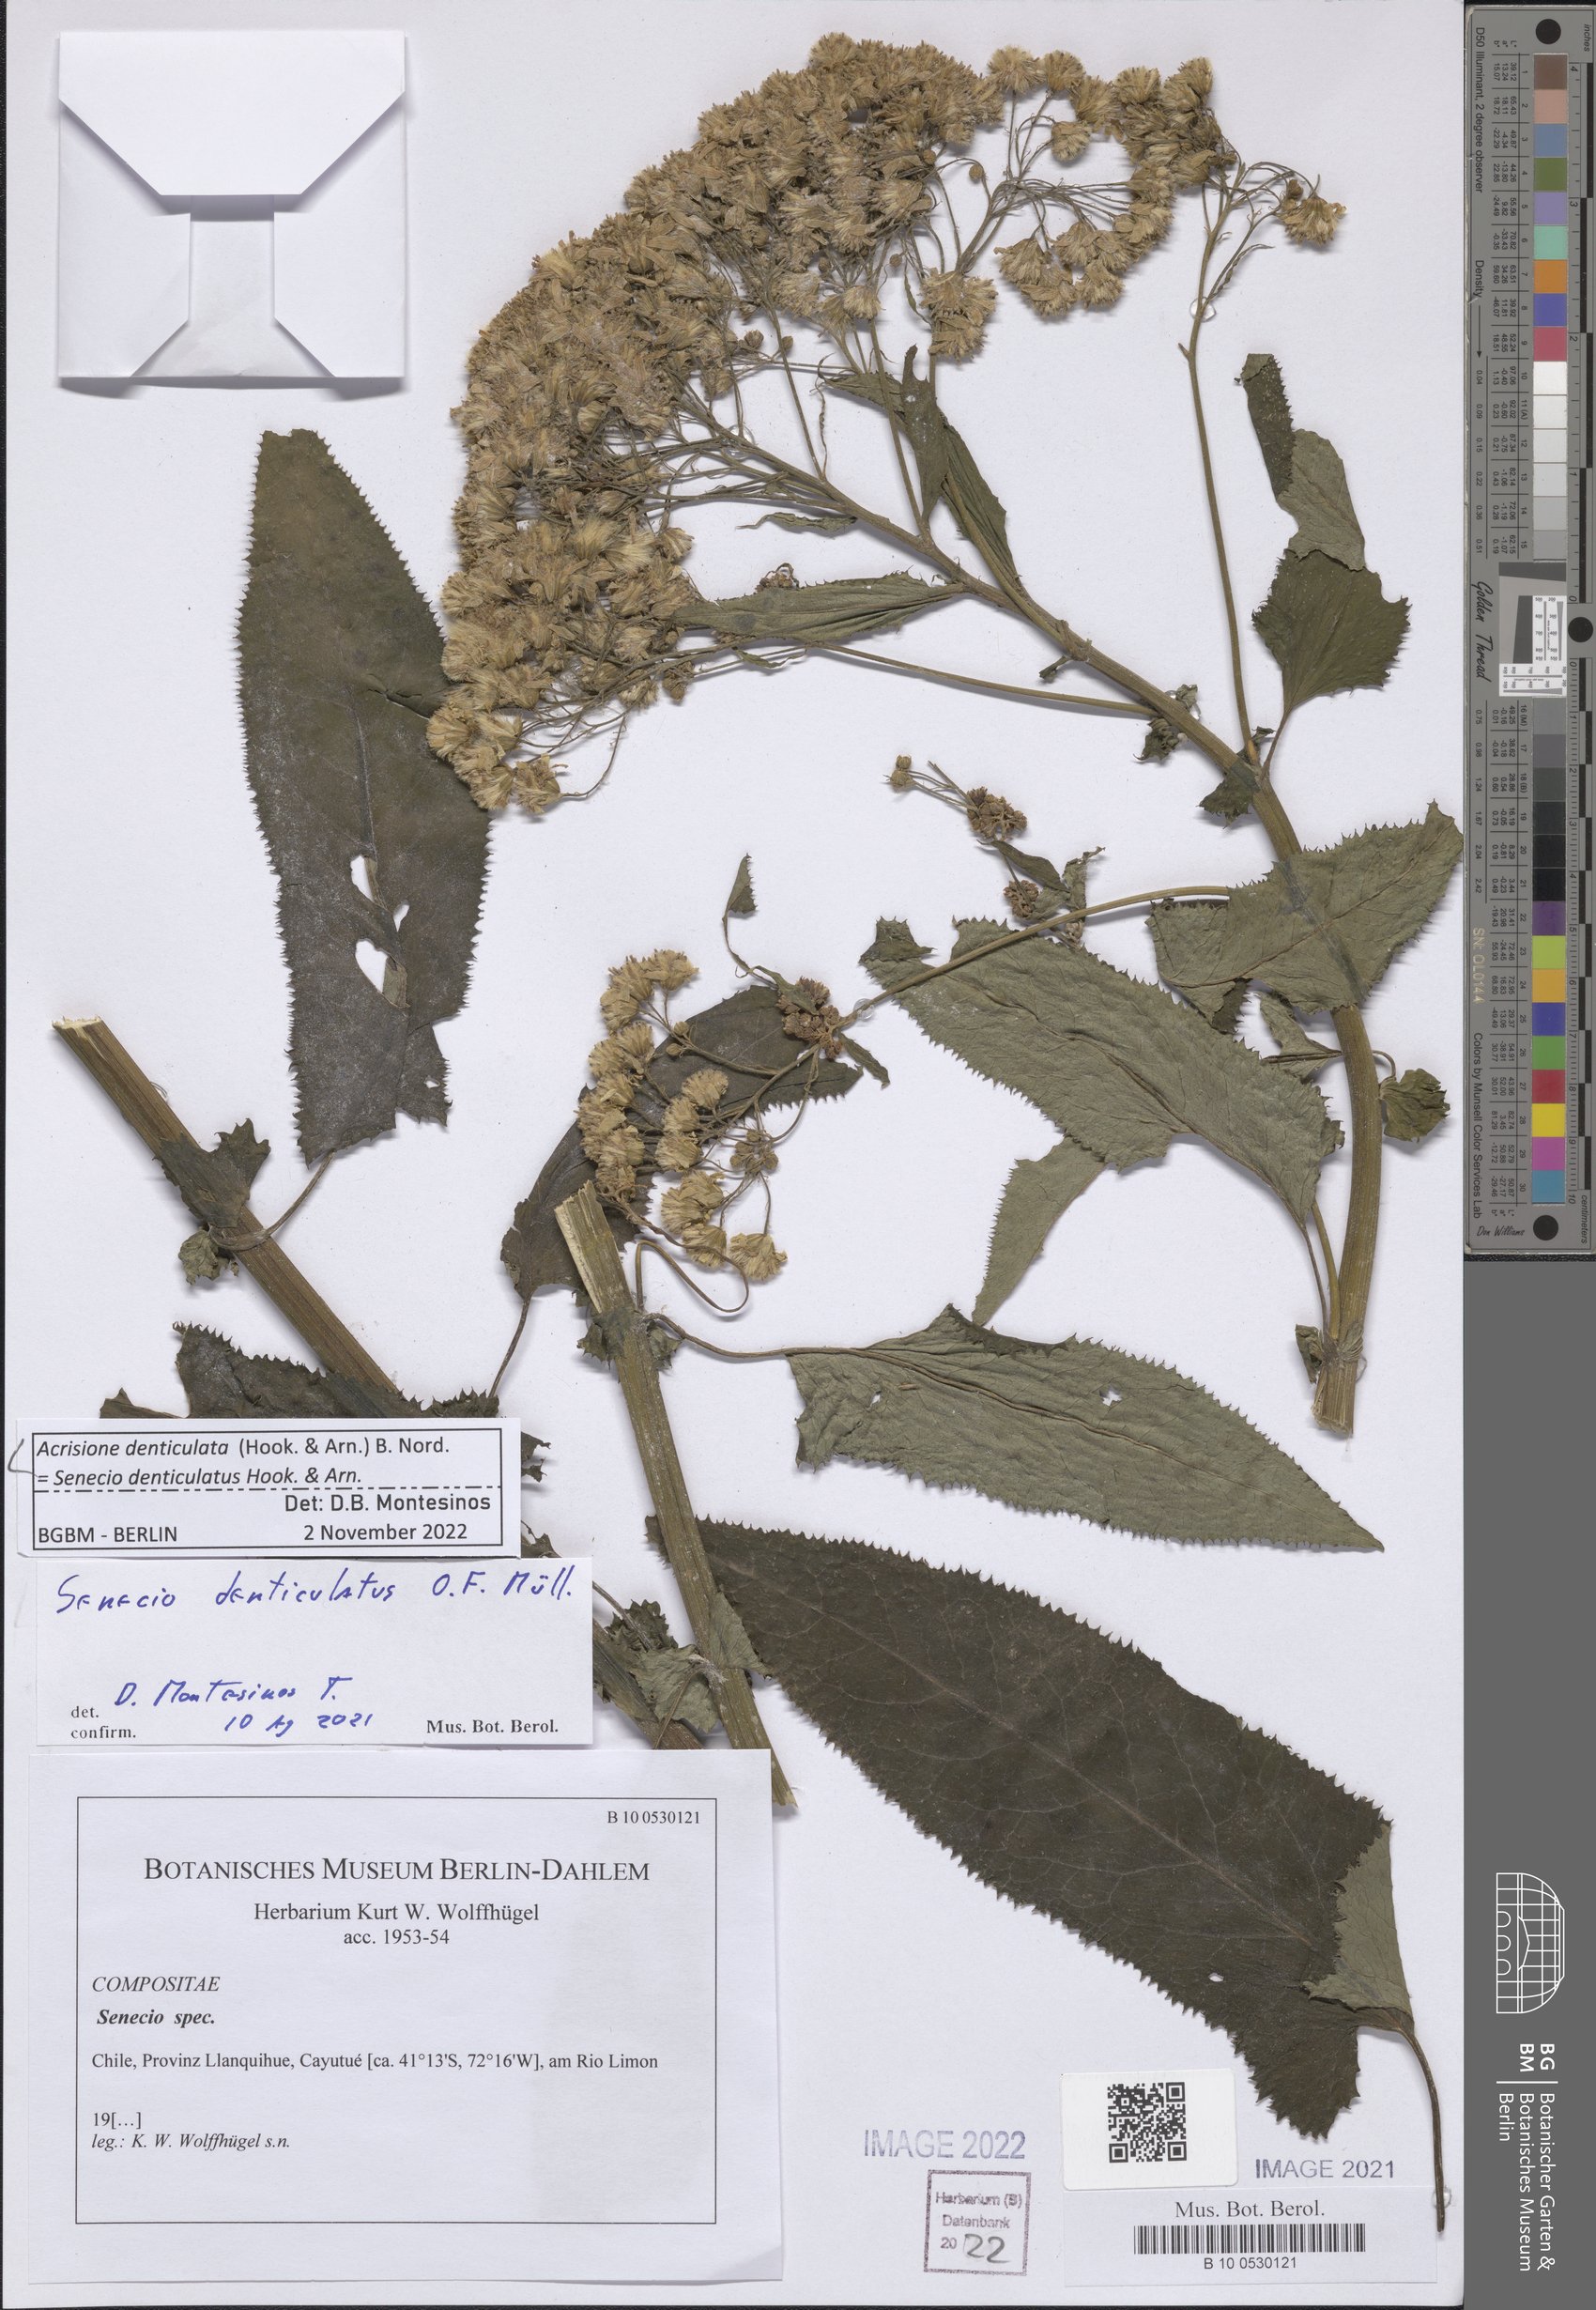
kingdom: Plantae
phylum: Tracheophyta
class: Magnoliopsida
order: Asterales
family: Asteraceae
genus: Acrisione
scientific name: Acrisione denticulata
